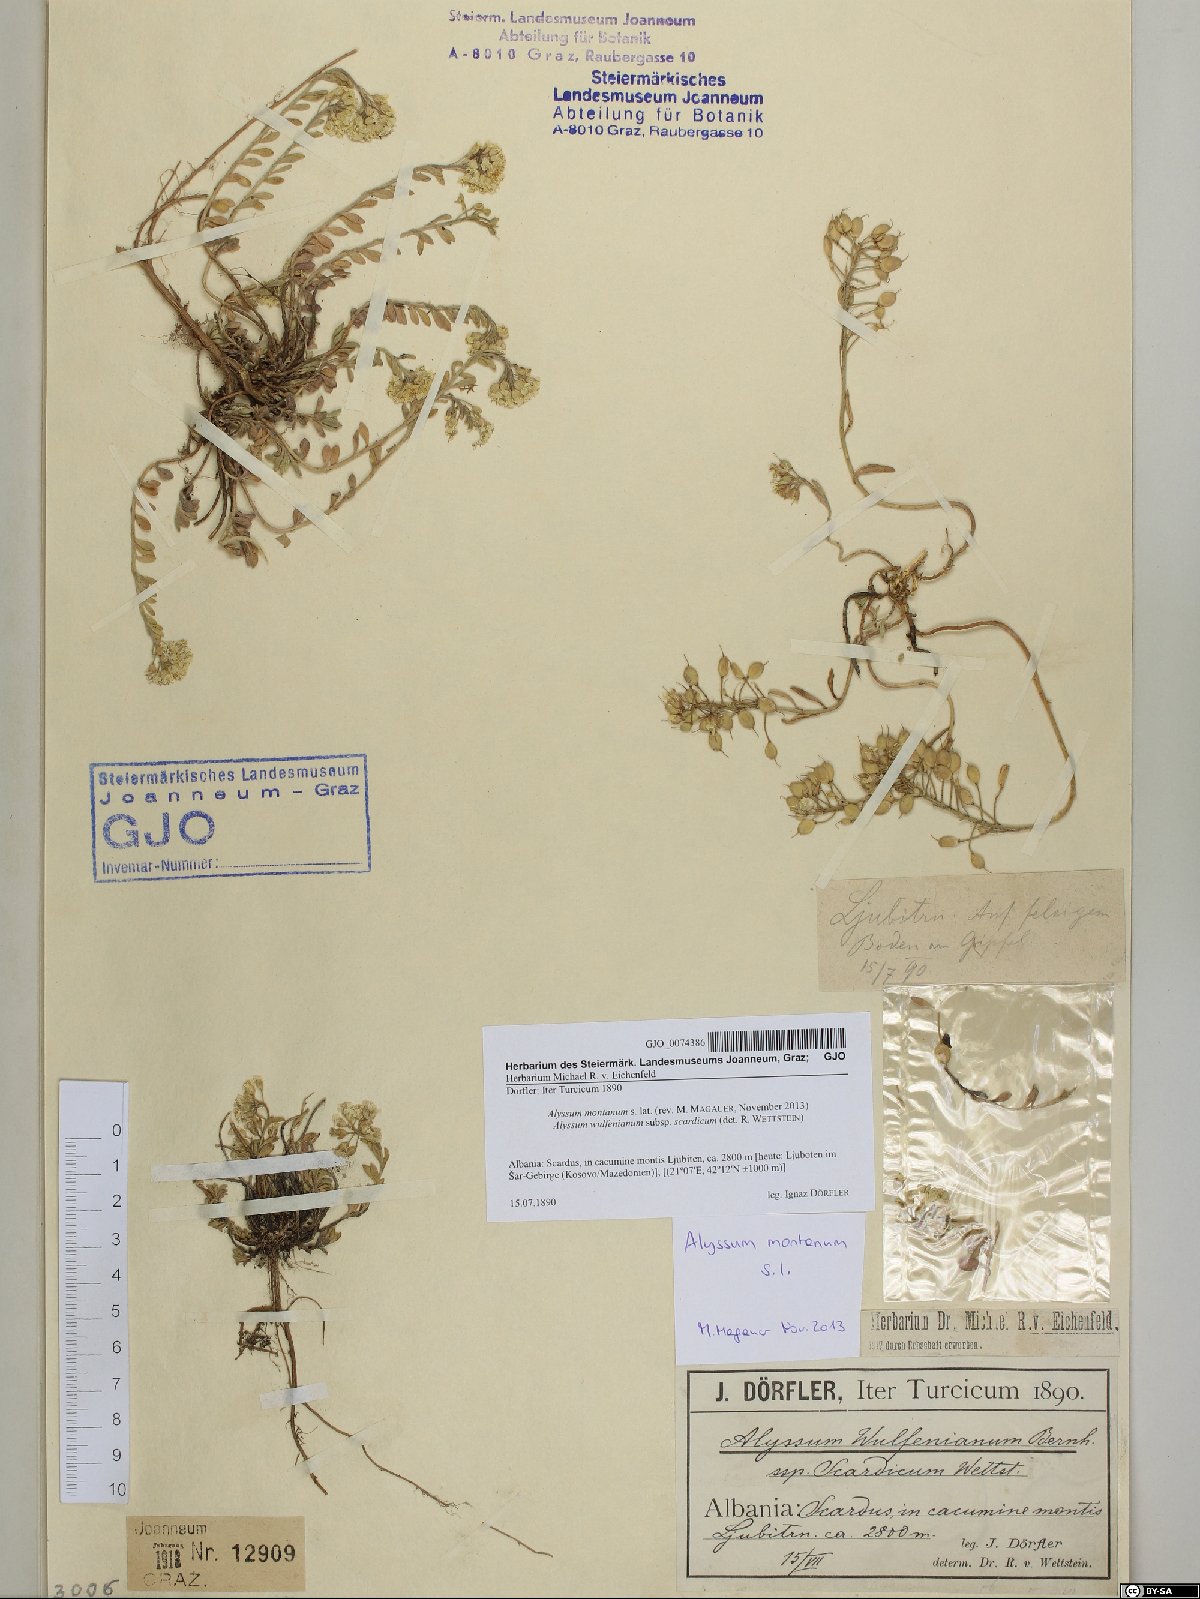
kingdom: Plantae
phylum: Tracheophyta
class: Magnoliopsida
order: Brassicales
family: Brassicaceae
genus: Alyssum
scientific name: Alyssum montanum
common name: Mountain alison
